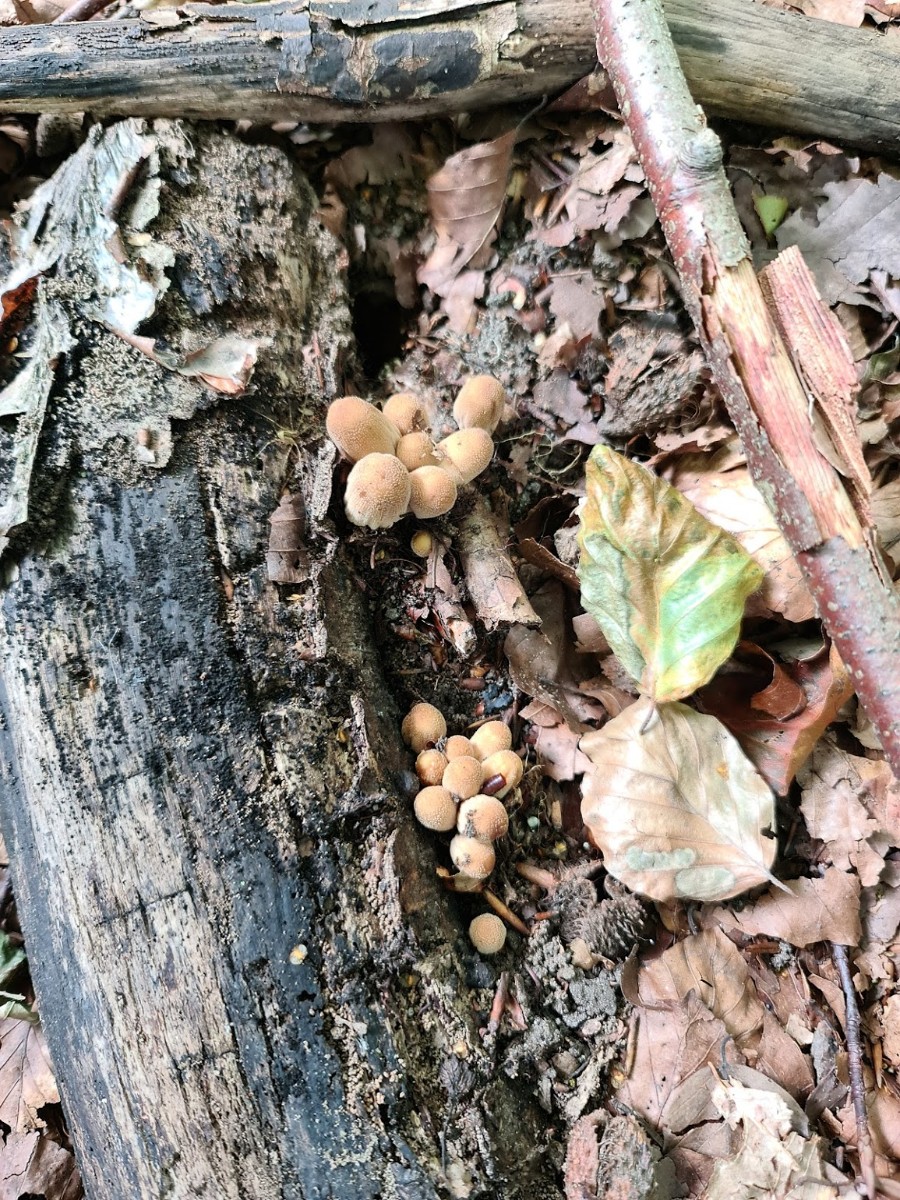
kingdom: Fungi
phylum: Basidiomycota
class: Agaricomycetes
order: Agaricales
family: Psathyrellaceae
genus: Coprinellus
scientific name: Coprinellus micaceus
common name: glimmer-blækhat
